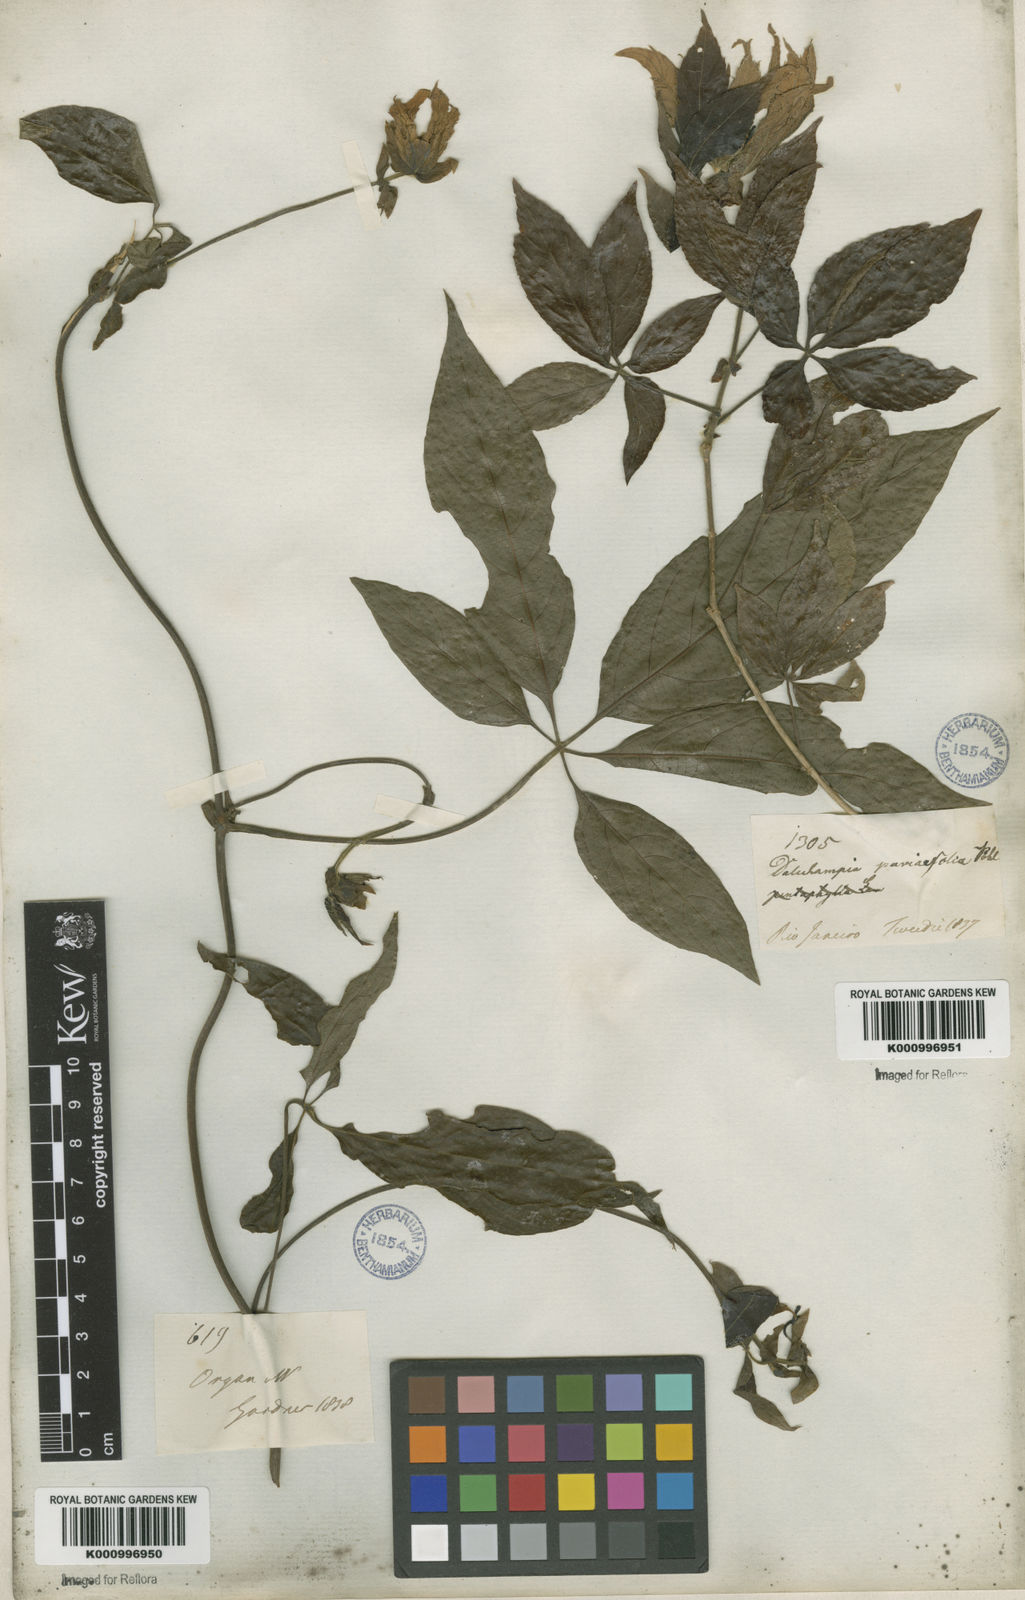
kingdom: Plantae
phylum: Tracheophyta
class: Magnoliopsida
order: Malpighiales
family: Euphorbiaceae
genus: Dalechampia
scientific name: Dalechampia pentaphylla
